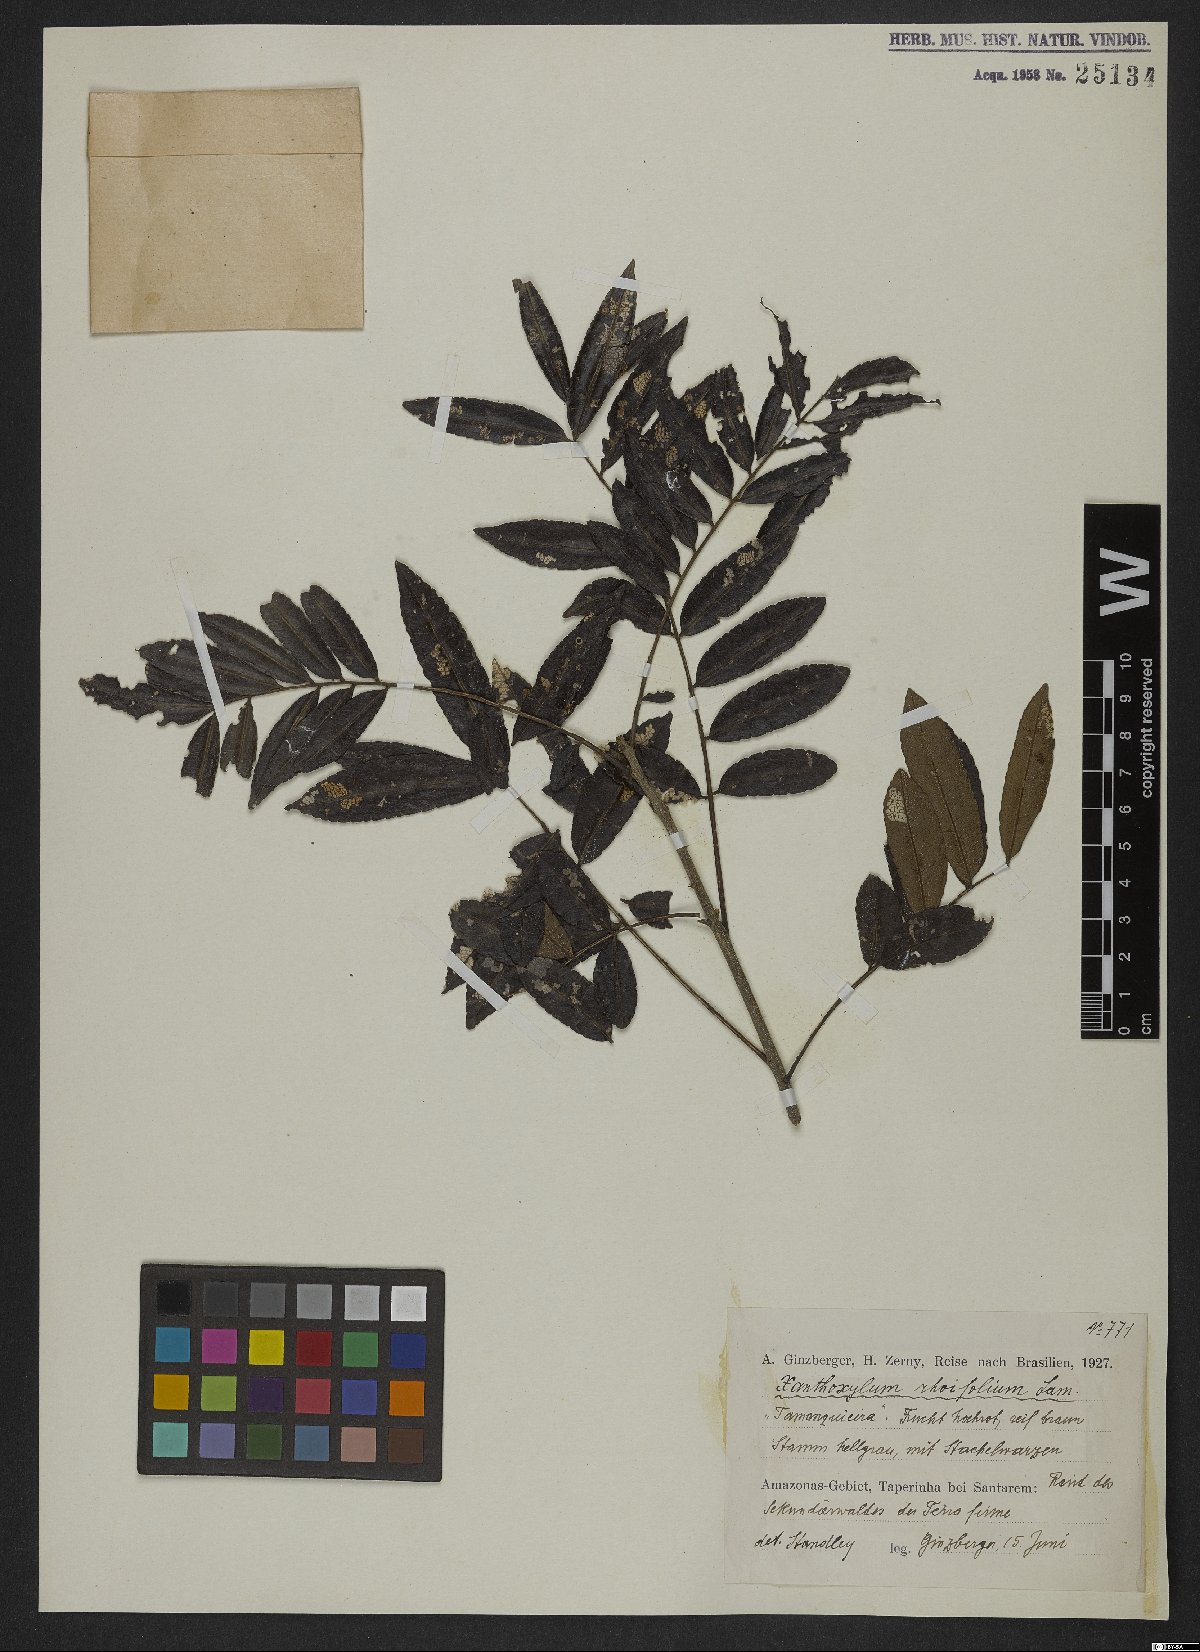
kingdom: Plantae
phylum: Tracheophyta
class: Magnoliopsida
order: Sapindales
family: Rutaceae
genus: Zanthoxylum
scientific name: Zanthoxylum rhoifolium
